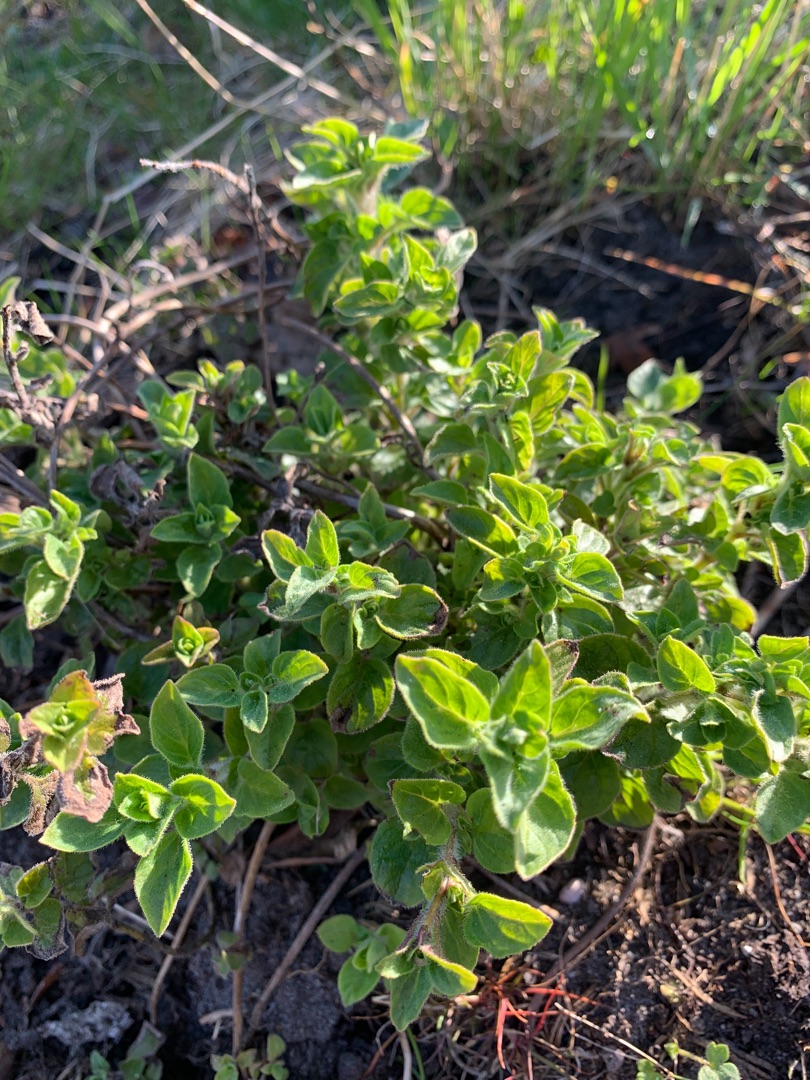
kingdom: Plantae
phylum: Tracheophyta
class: Magnoliopsida
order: Lamiales
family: Lamiaceae
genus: Origanum
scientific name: Origanum vulgare
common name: Merian
